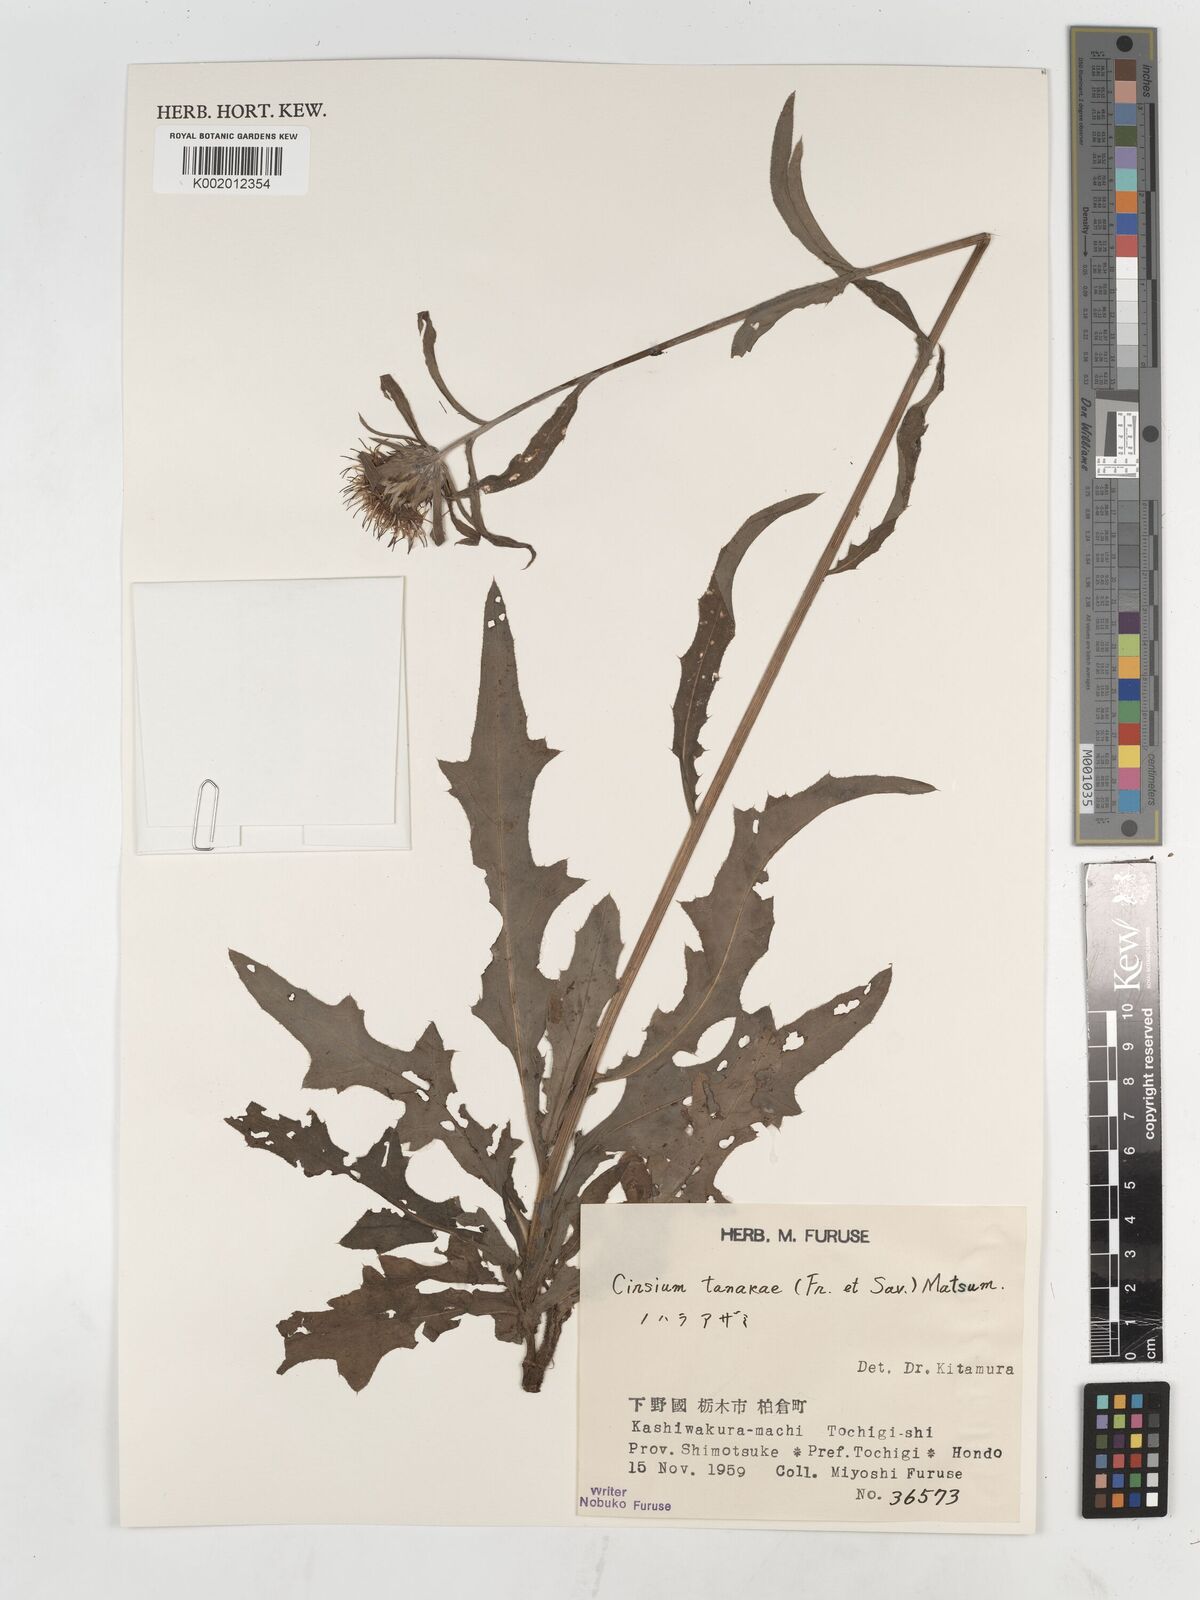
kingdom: Plantae
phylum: Tracheophyta
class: Magnoliopsida
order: Asterales
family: Asteraceae
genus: Cirsium
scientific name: Cirsium nipponicum
